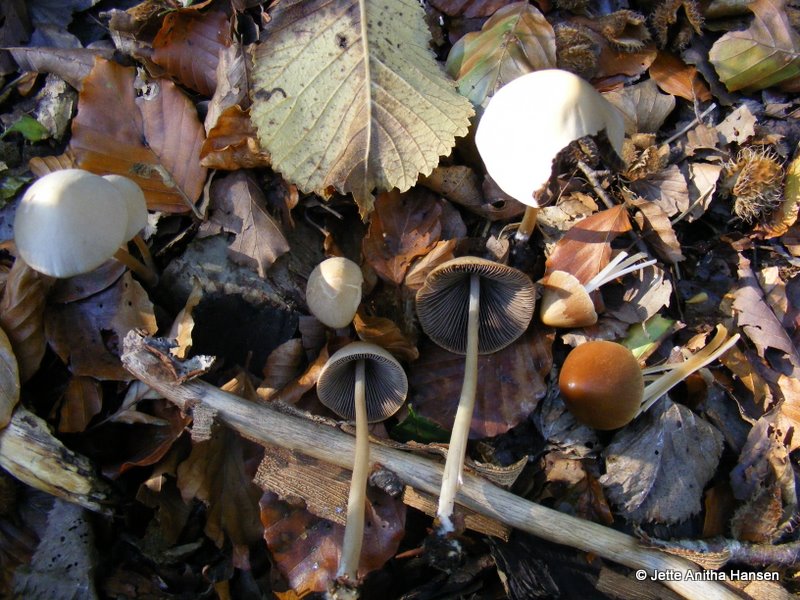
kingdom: Fungi
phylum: Basidiomycota
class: Agaricomycetes
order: Agaricales
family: Psathyrellaceae
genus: Parasola
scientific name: Parasola conopilea
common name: kegle-hjulhat
